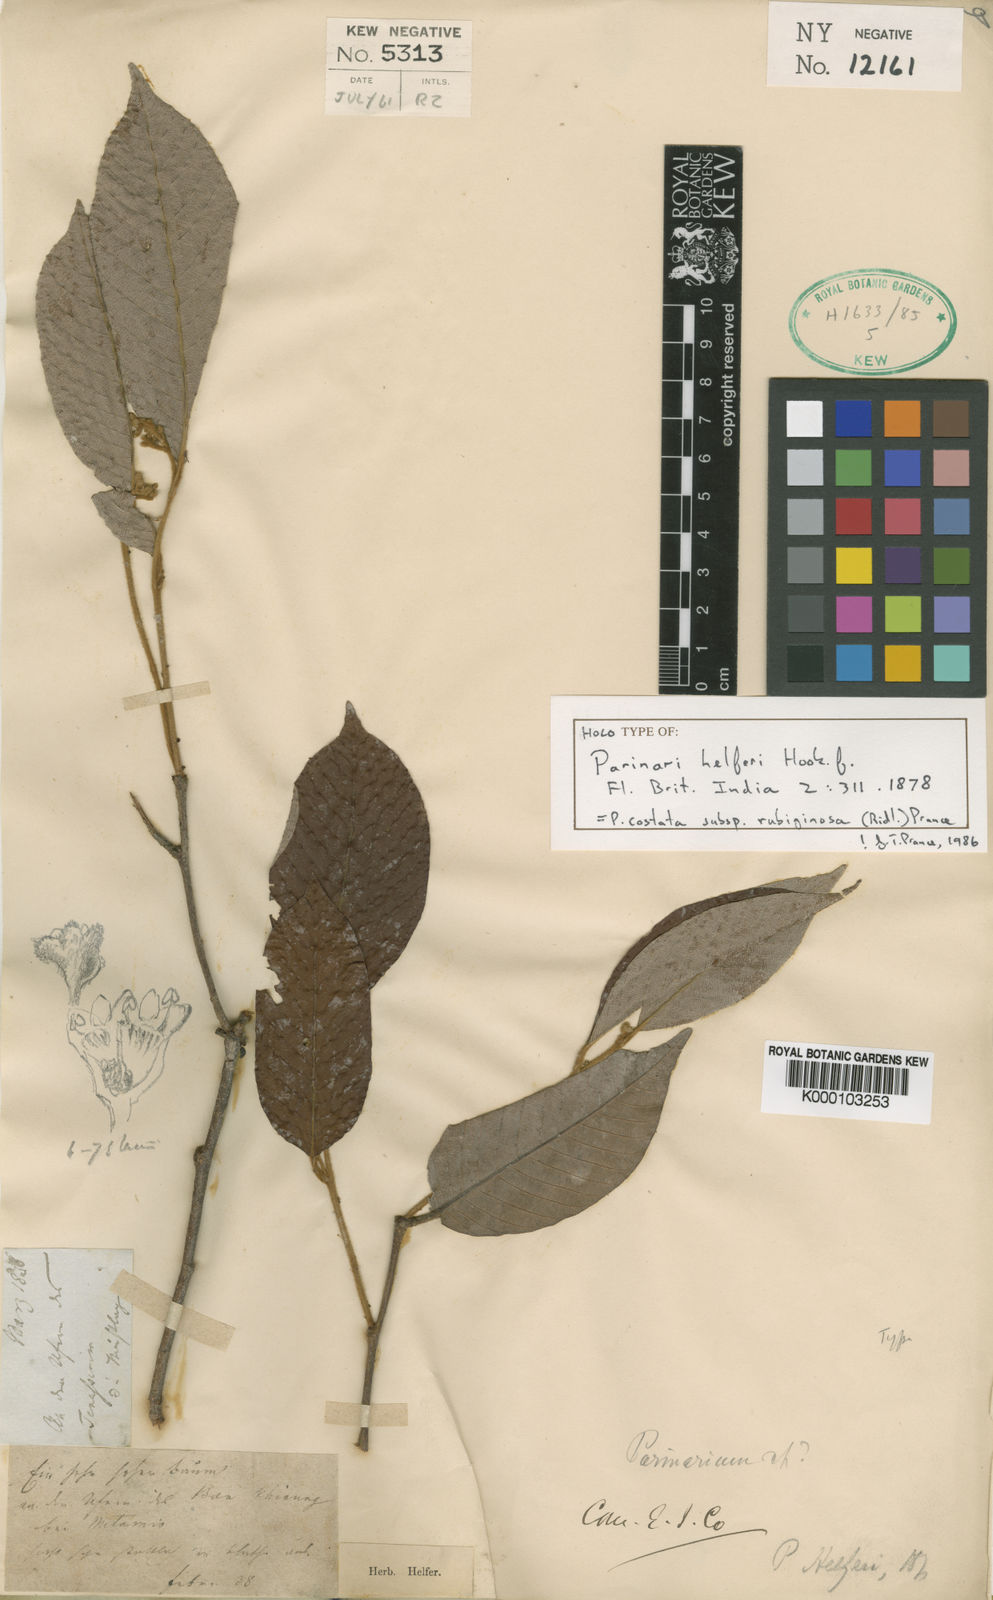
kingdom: Plantae
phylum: Tracheophyta
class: Magnoliopsida
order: Malpighiales
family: Chrysobalanaceae
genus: Parinari
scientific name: Parinari costata
